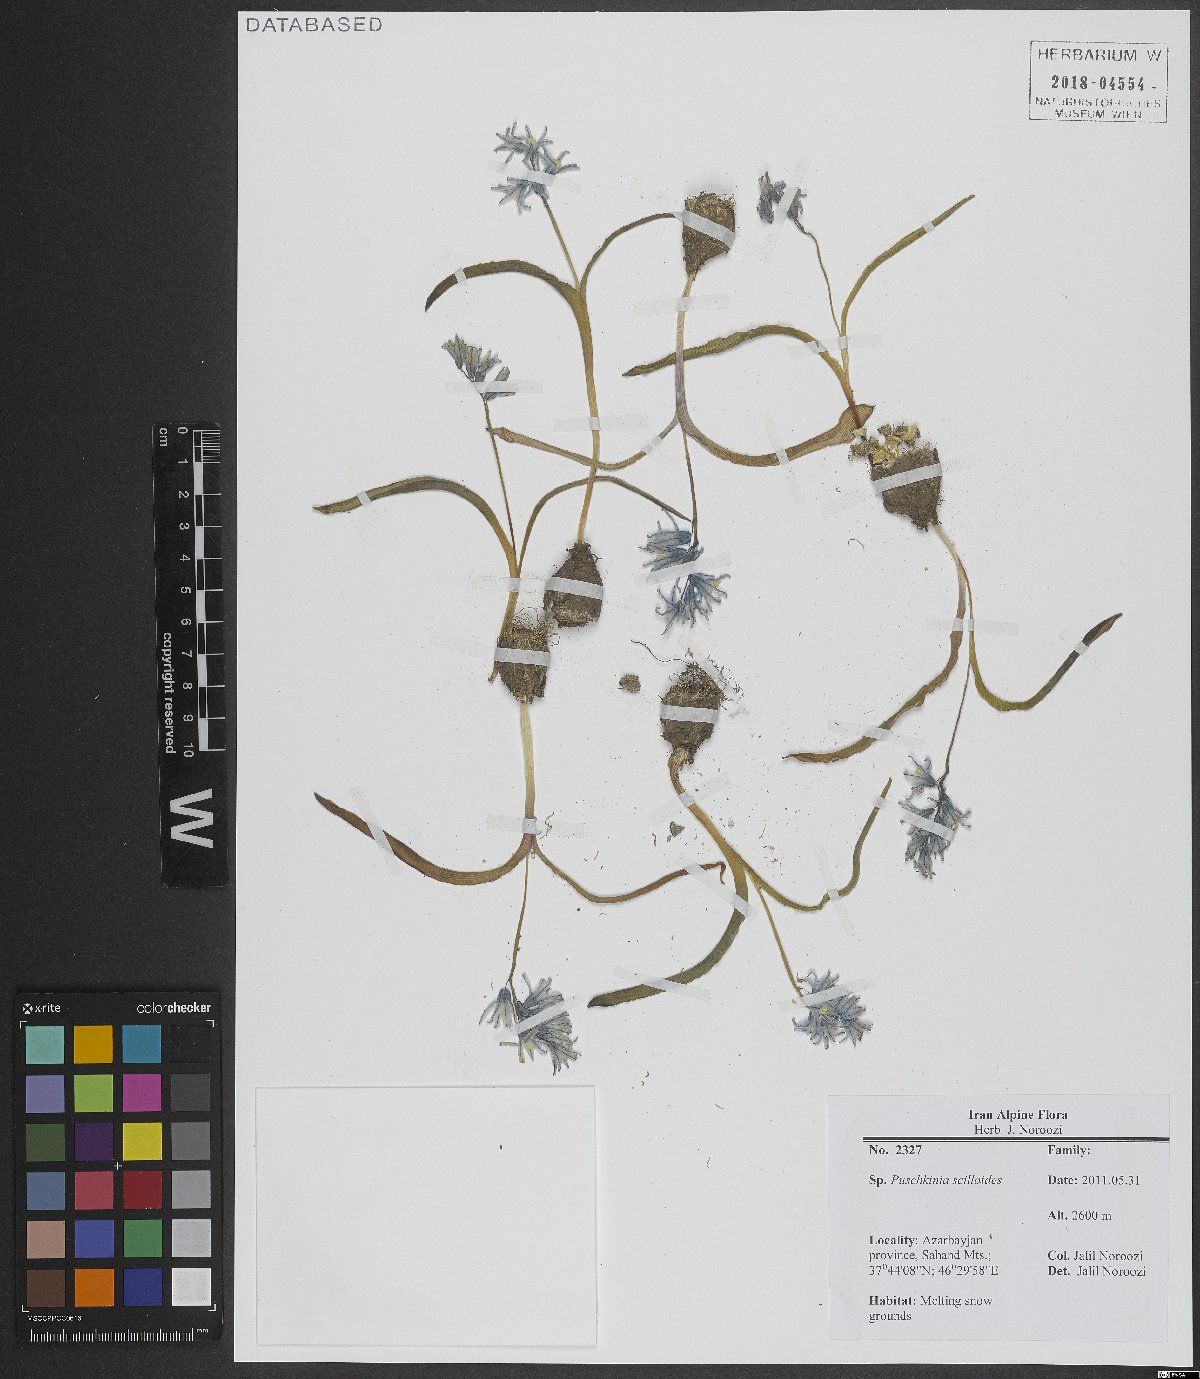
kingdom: Plantae
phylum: Tracheophyta
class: Liliopsida
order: Asparagales
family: Asparagaceae
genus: Puschkinia
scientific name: Puschkinia scilloides
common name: Striped squill
